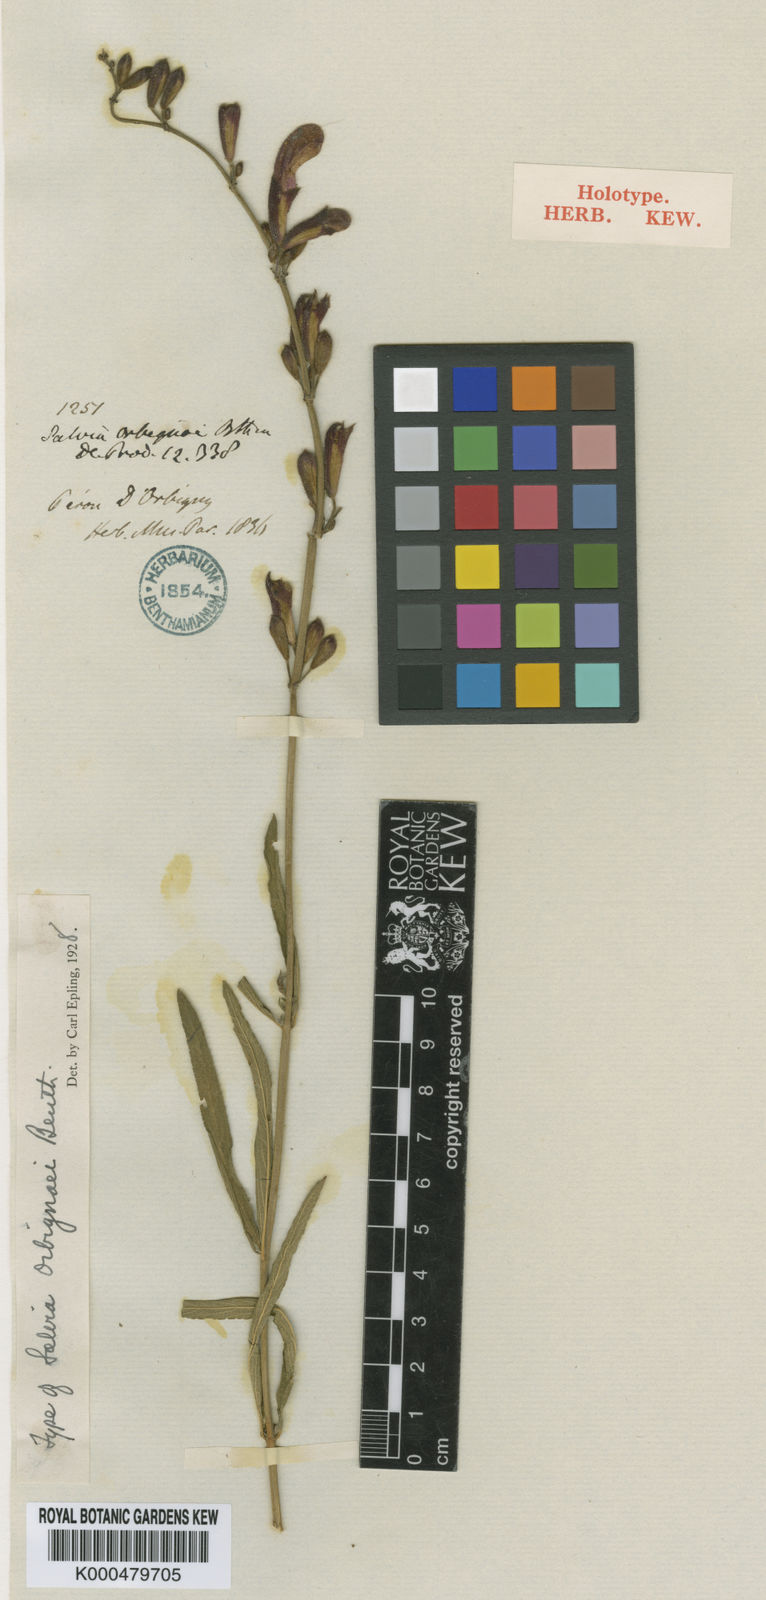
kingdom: Plantae
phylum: Tracheophyta
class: Magnoliopsida
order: Lamiales
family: Lamiaceae
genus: Salvia
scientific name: Salvia orbignaei
